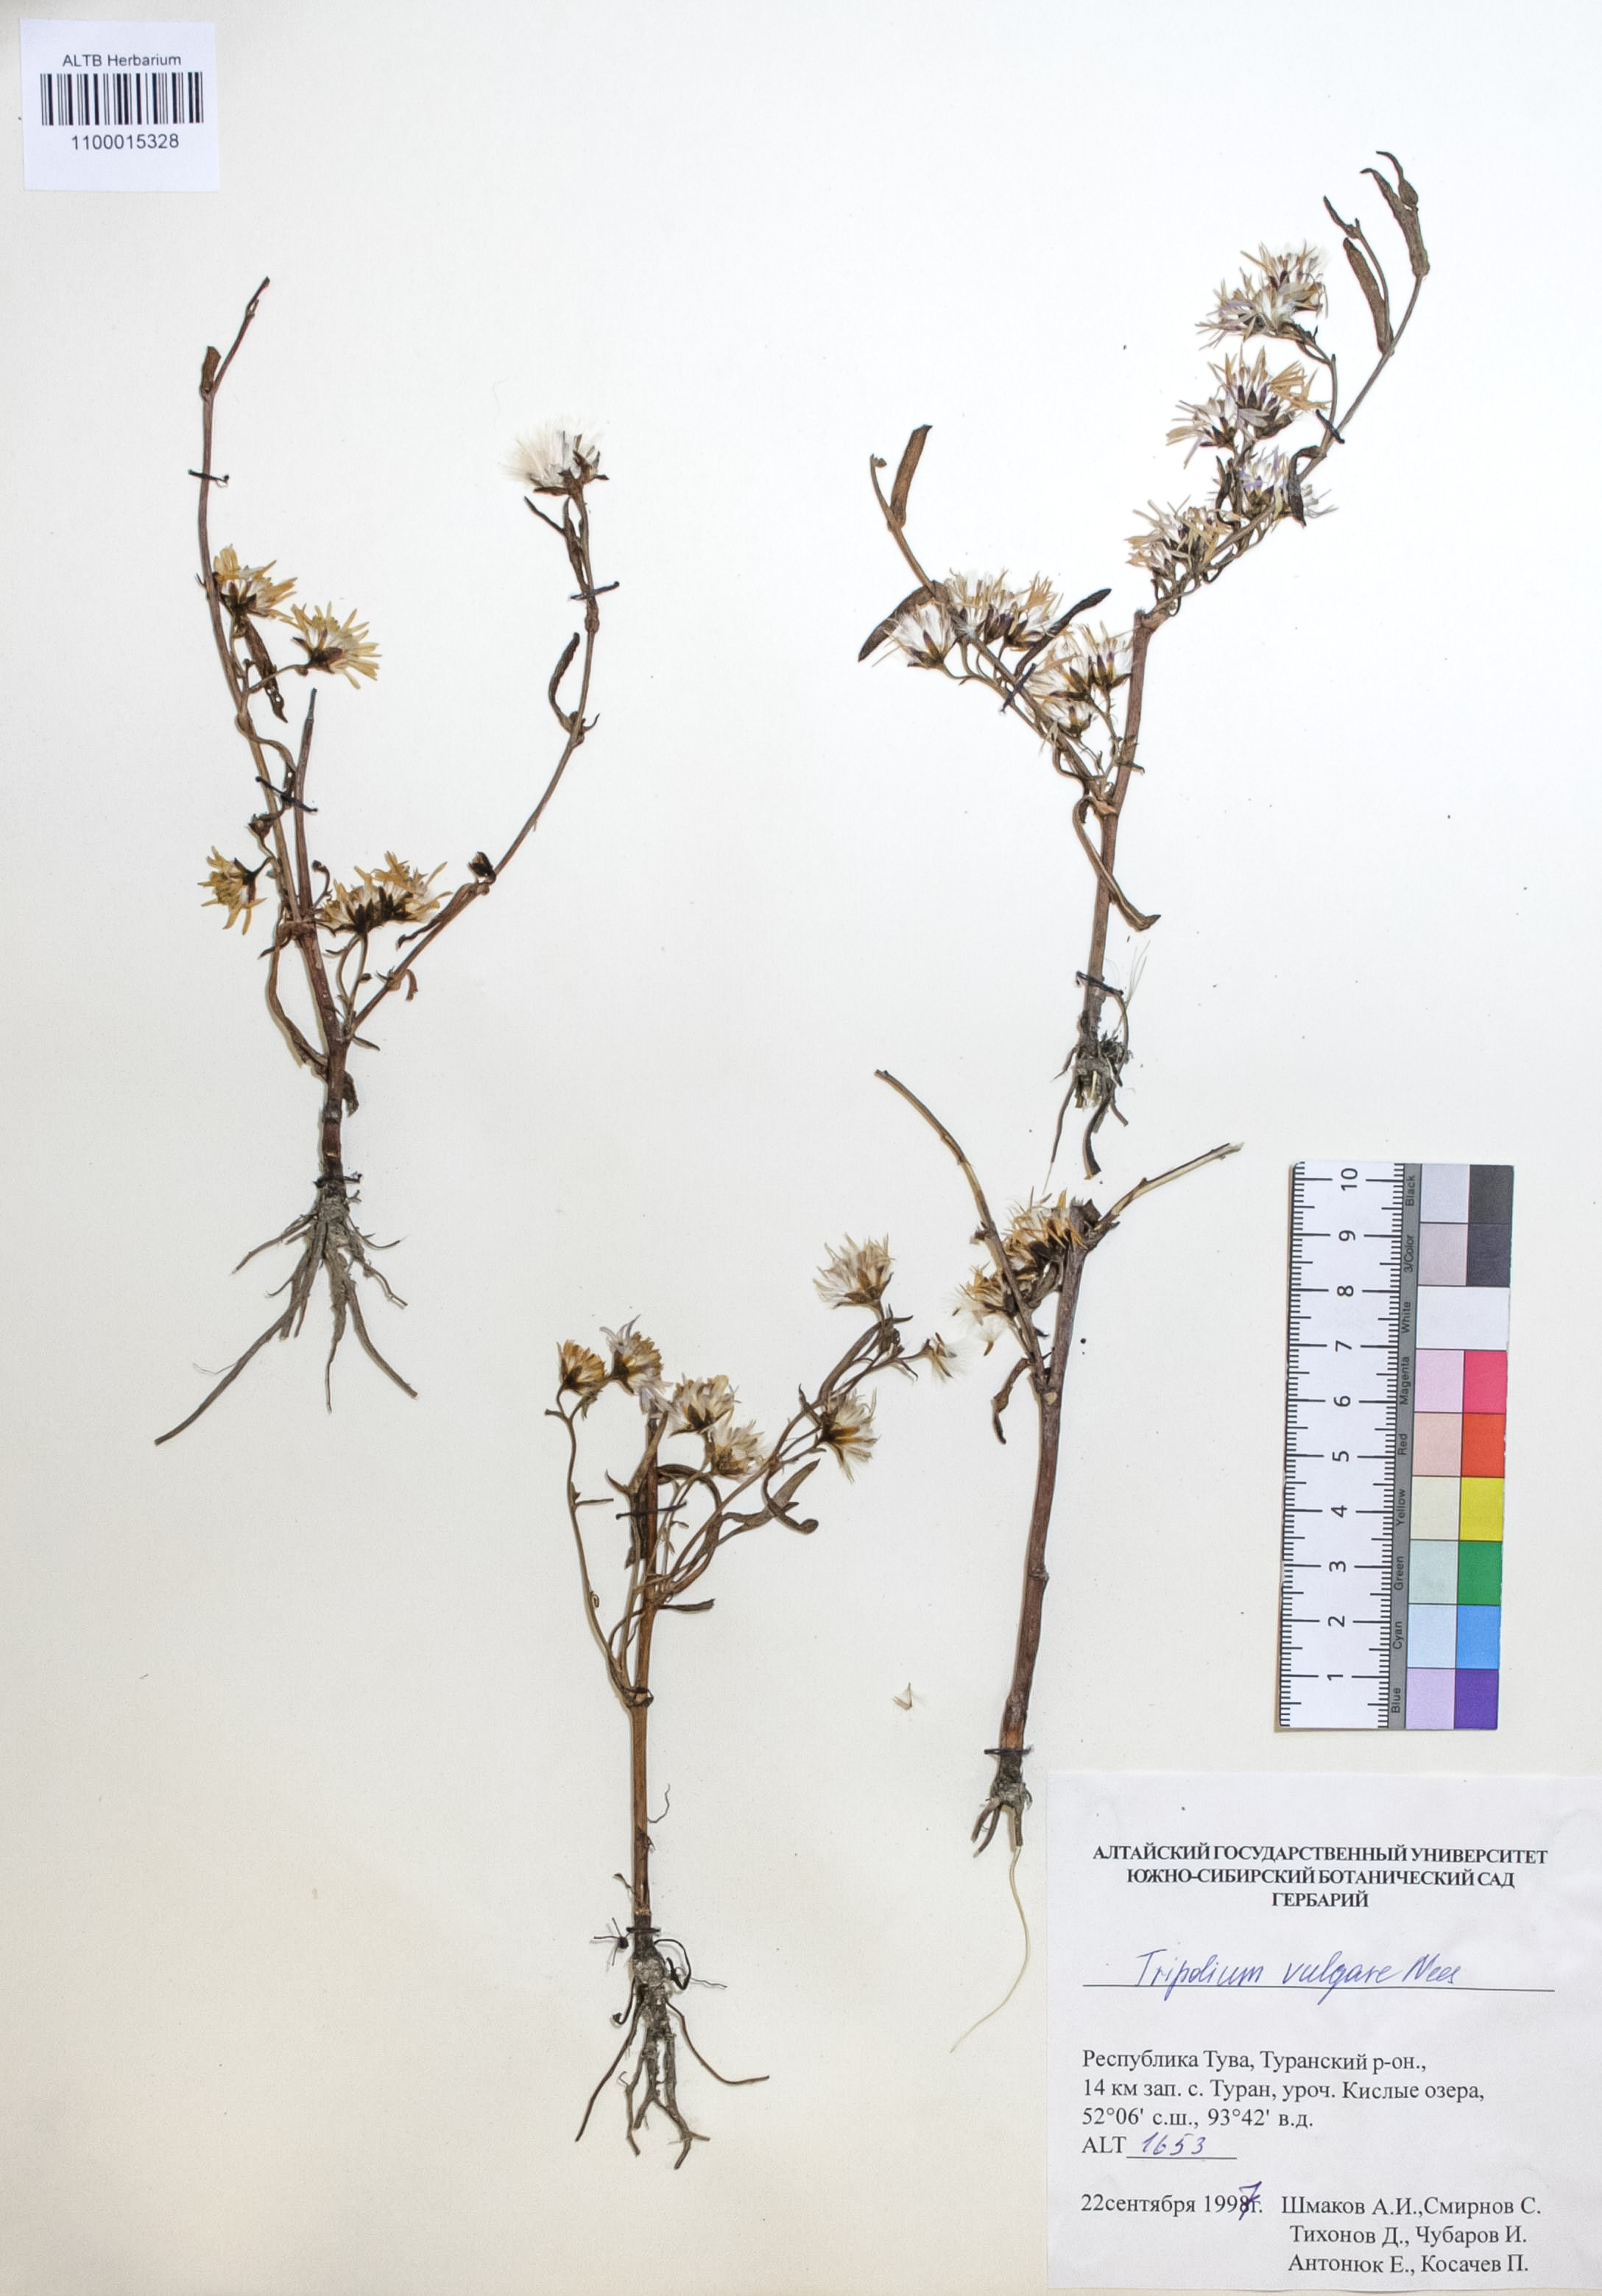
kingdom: Plantae
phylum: Tracheophyta
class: Magnoliopsida
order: Asterales
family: Asteraceae
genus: Tripolium
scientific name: Tripolium pannonicum
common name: Sea aster
